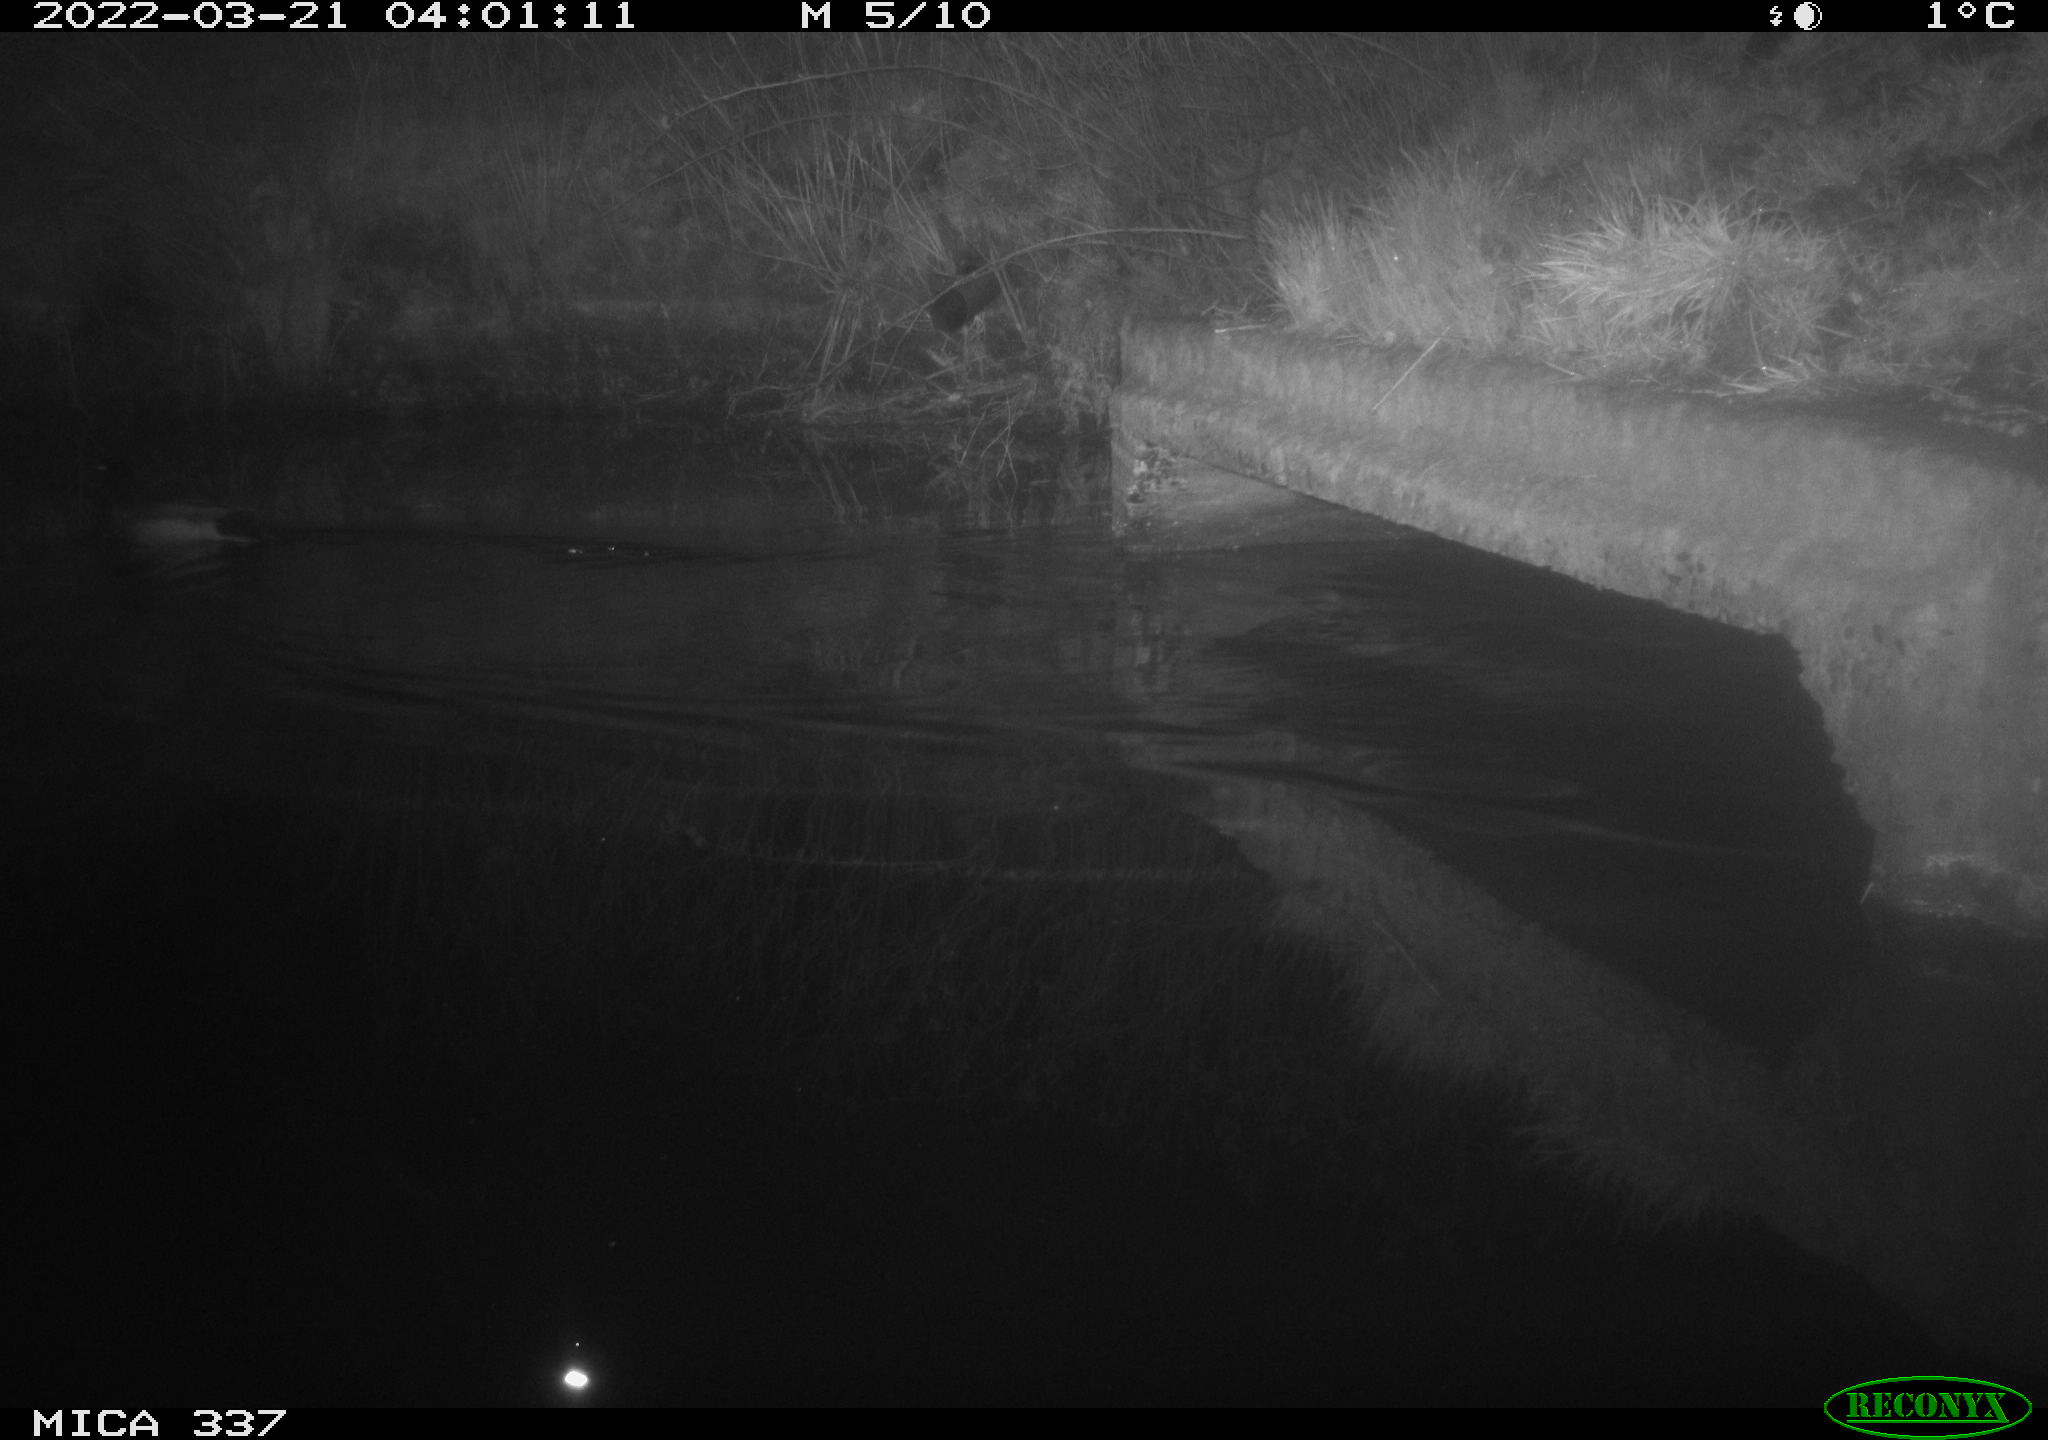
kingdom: Animalia
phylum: Chordata
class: Aves
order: Anseriformes
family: Anatidae
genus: Anas
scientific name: Anas platyrhynchos
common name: Mallard
